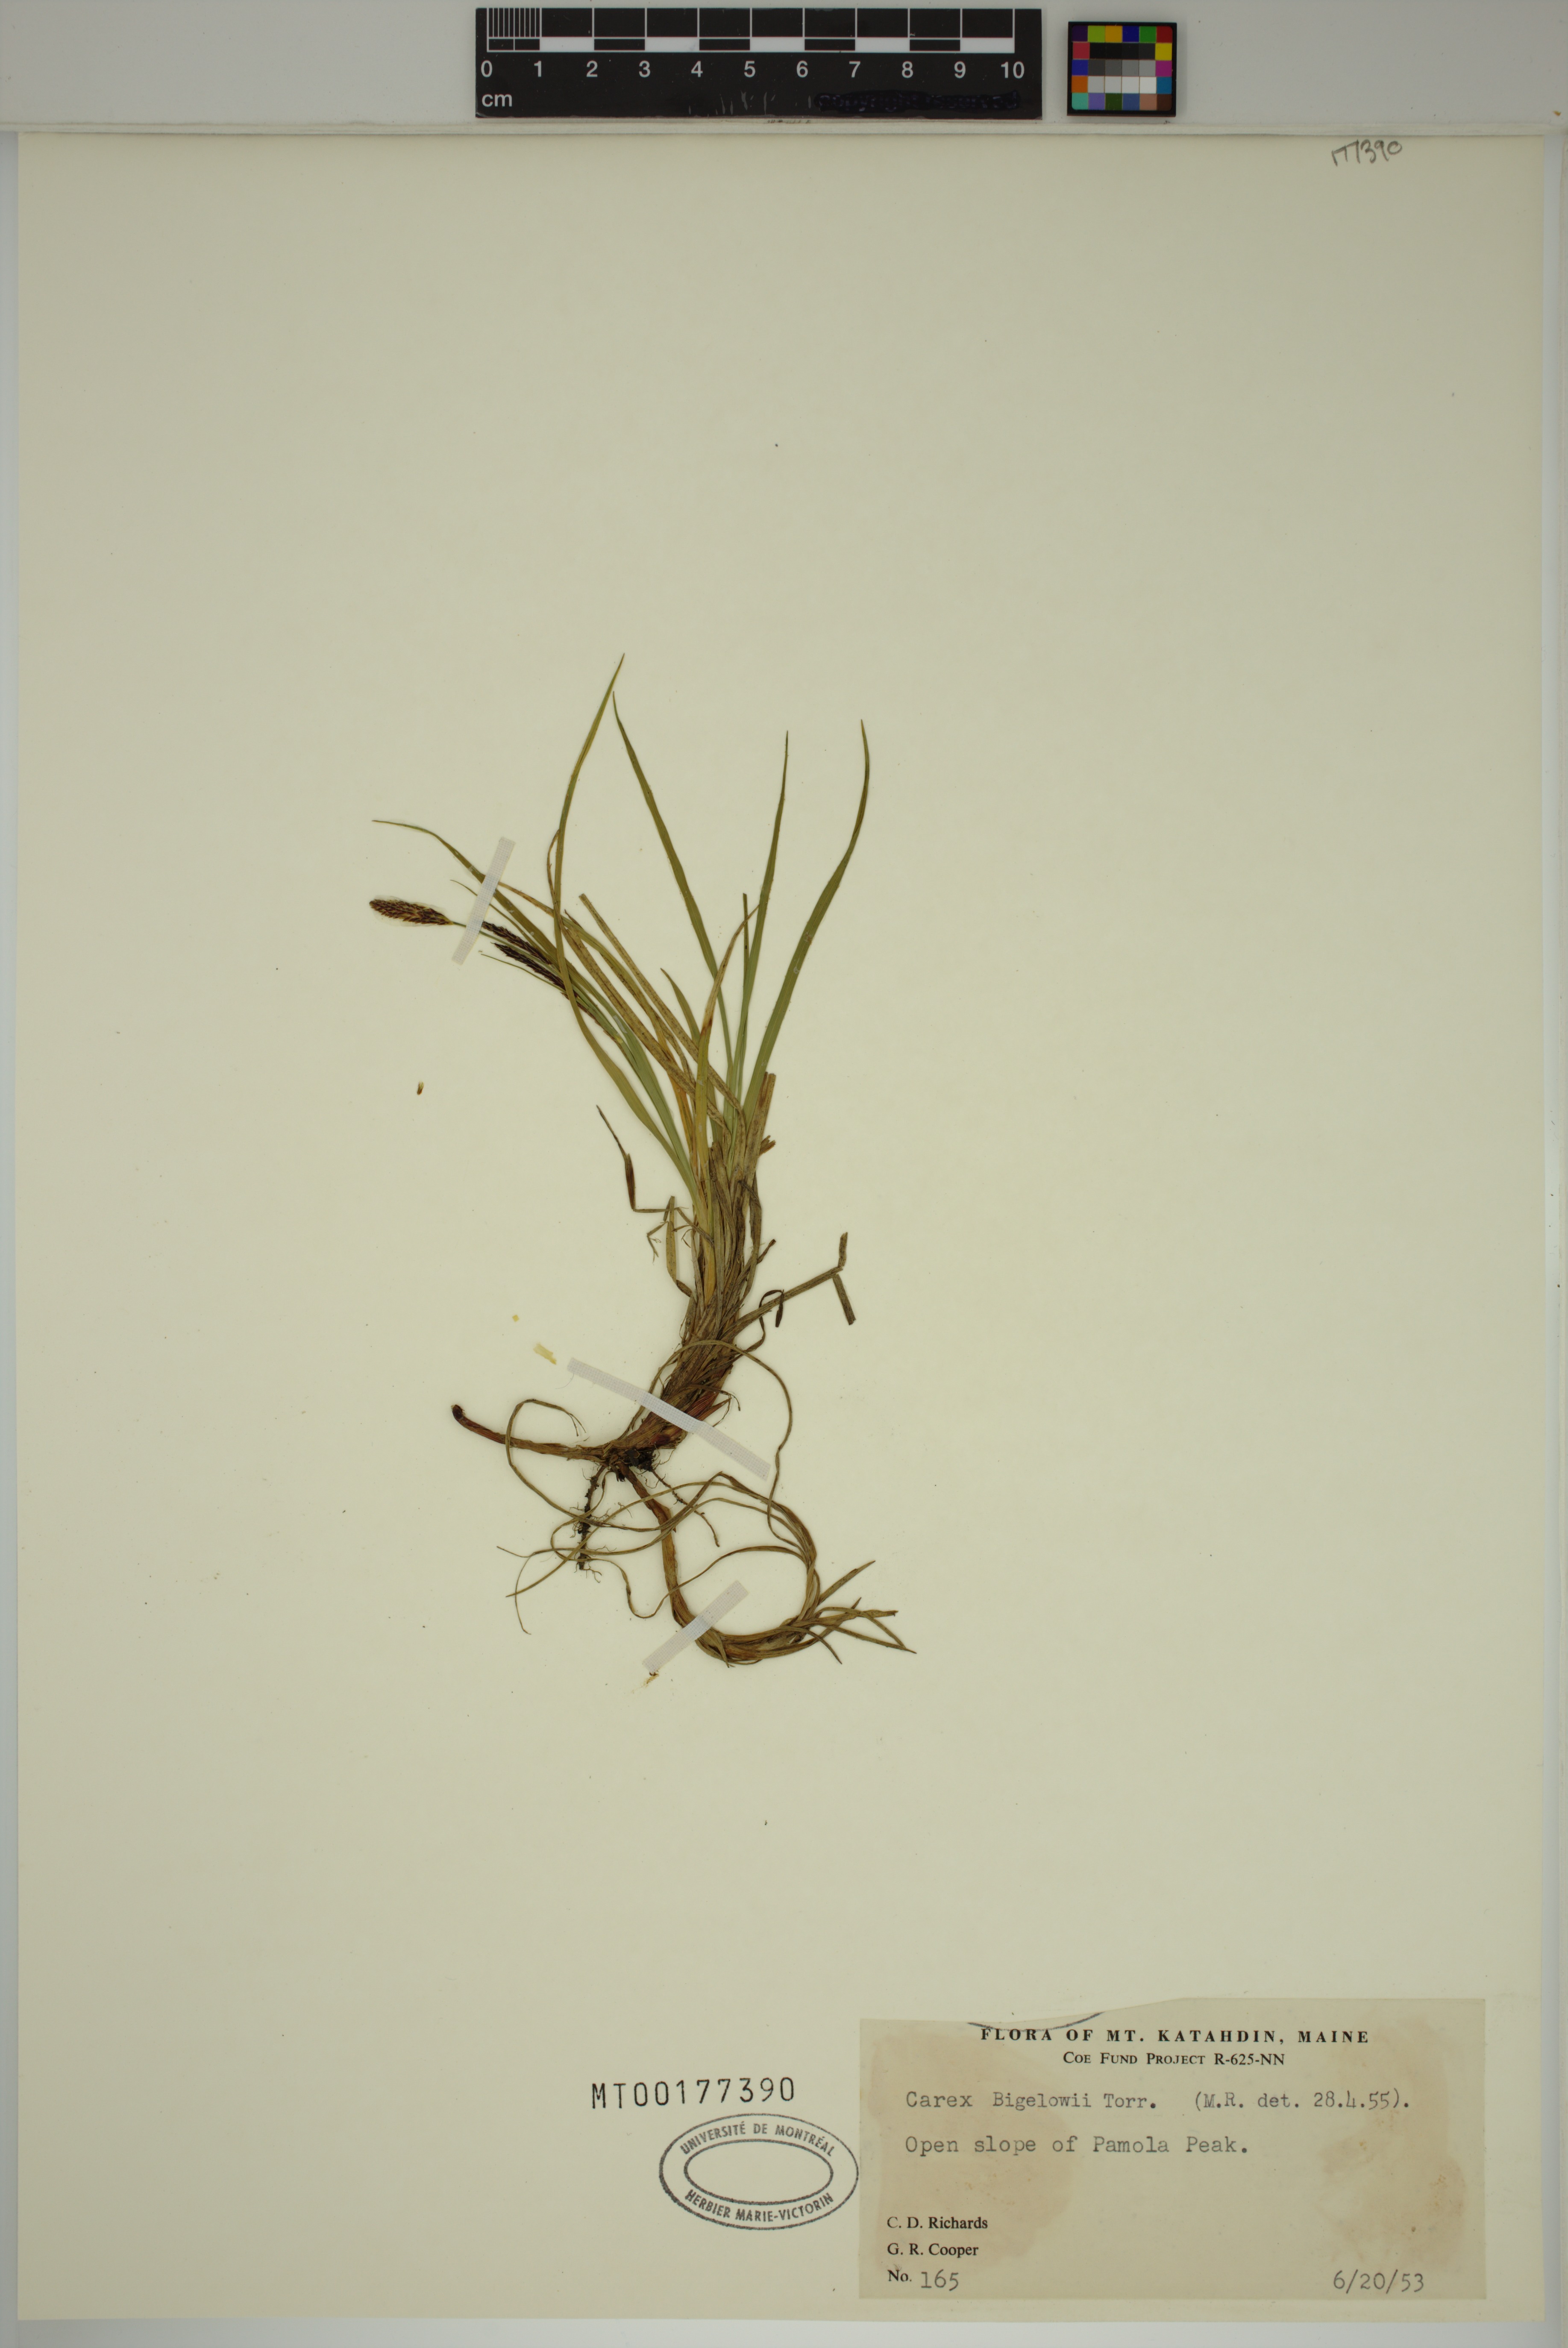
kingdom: Plantae
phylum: Tracheophyta
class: Liliopsida
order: Poales
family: Cyperaceae
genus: Carex
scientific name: Carex bigelowii
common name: Stiff sedge
